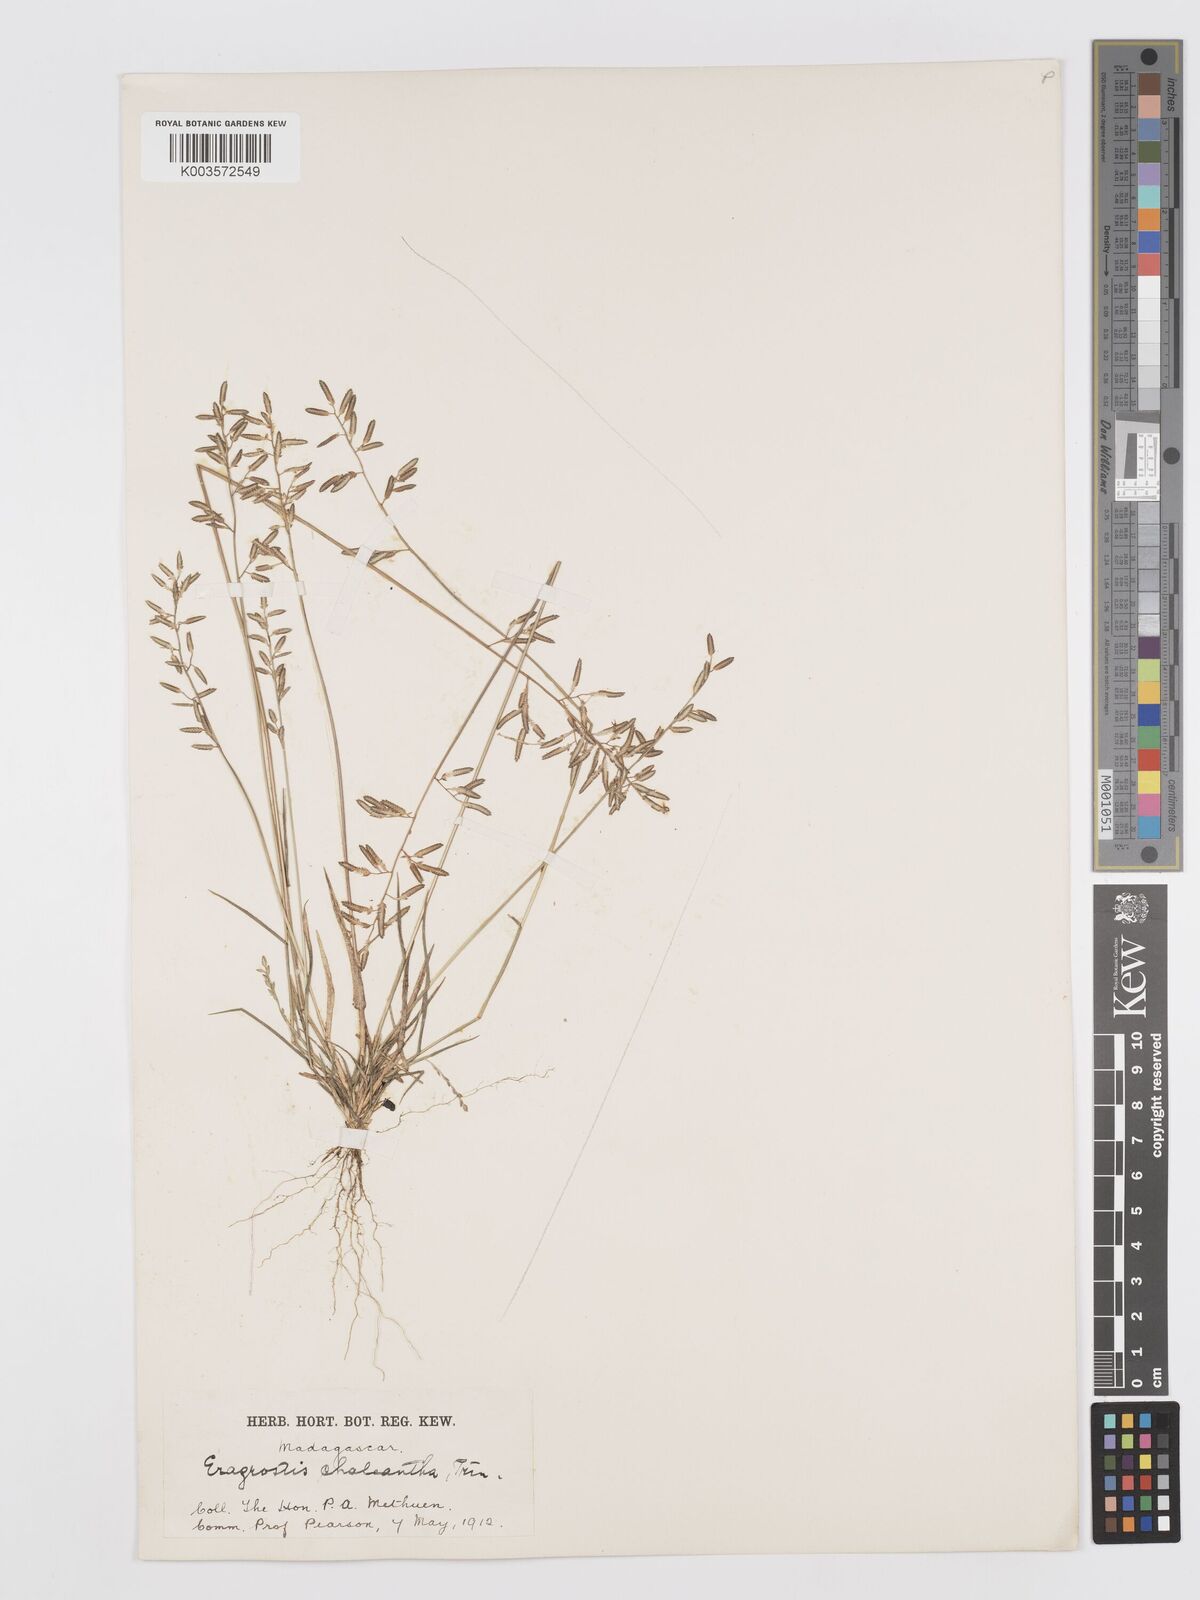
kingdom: Plantae
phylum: Tracheophyta
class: Liliopsida
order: Poales
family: Poaceae
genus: Eragrostis
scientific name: Eragrostis lateritica
